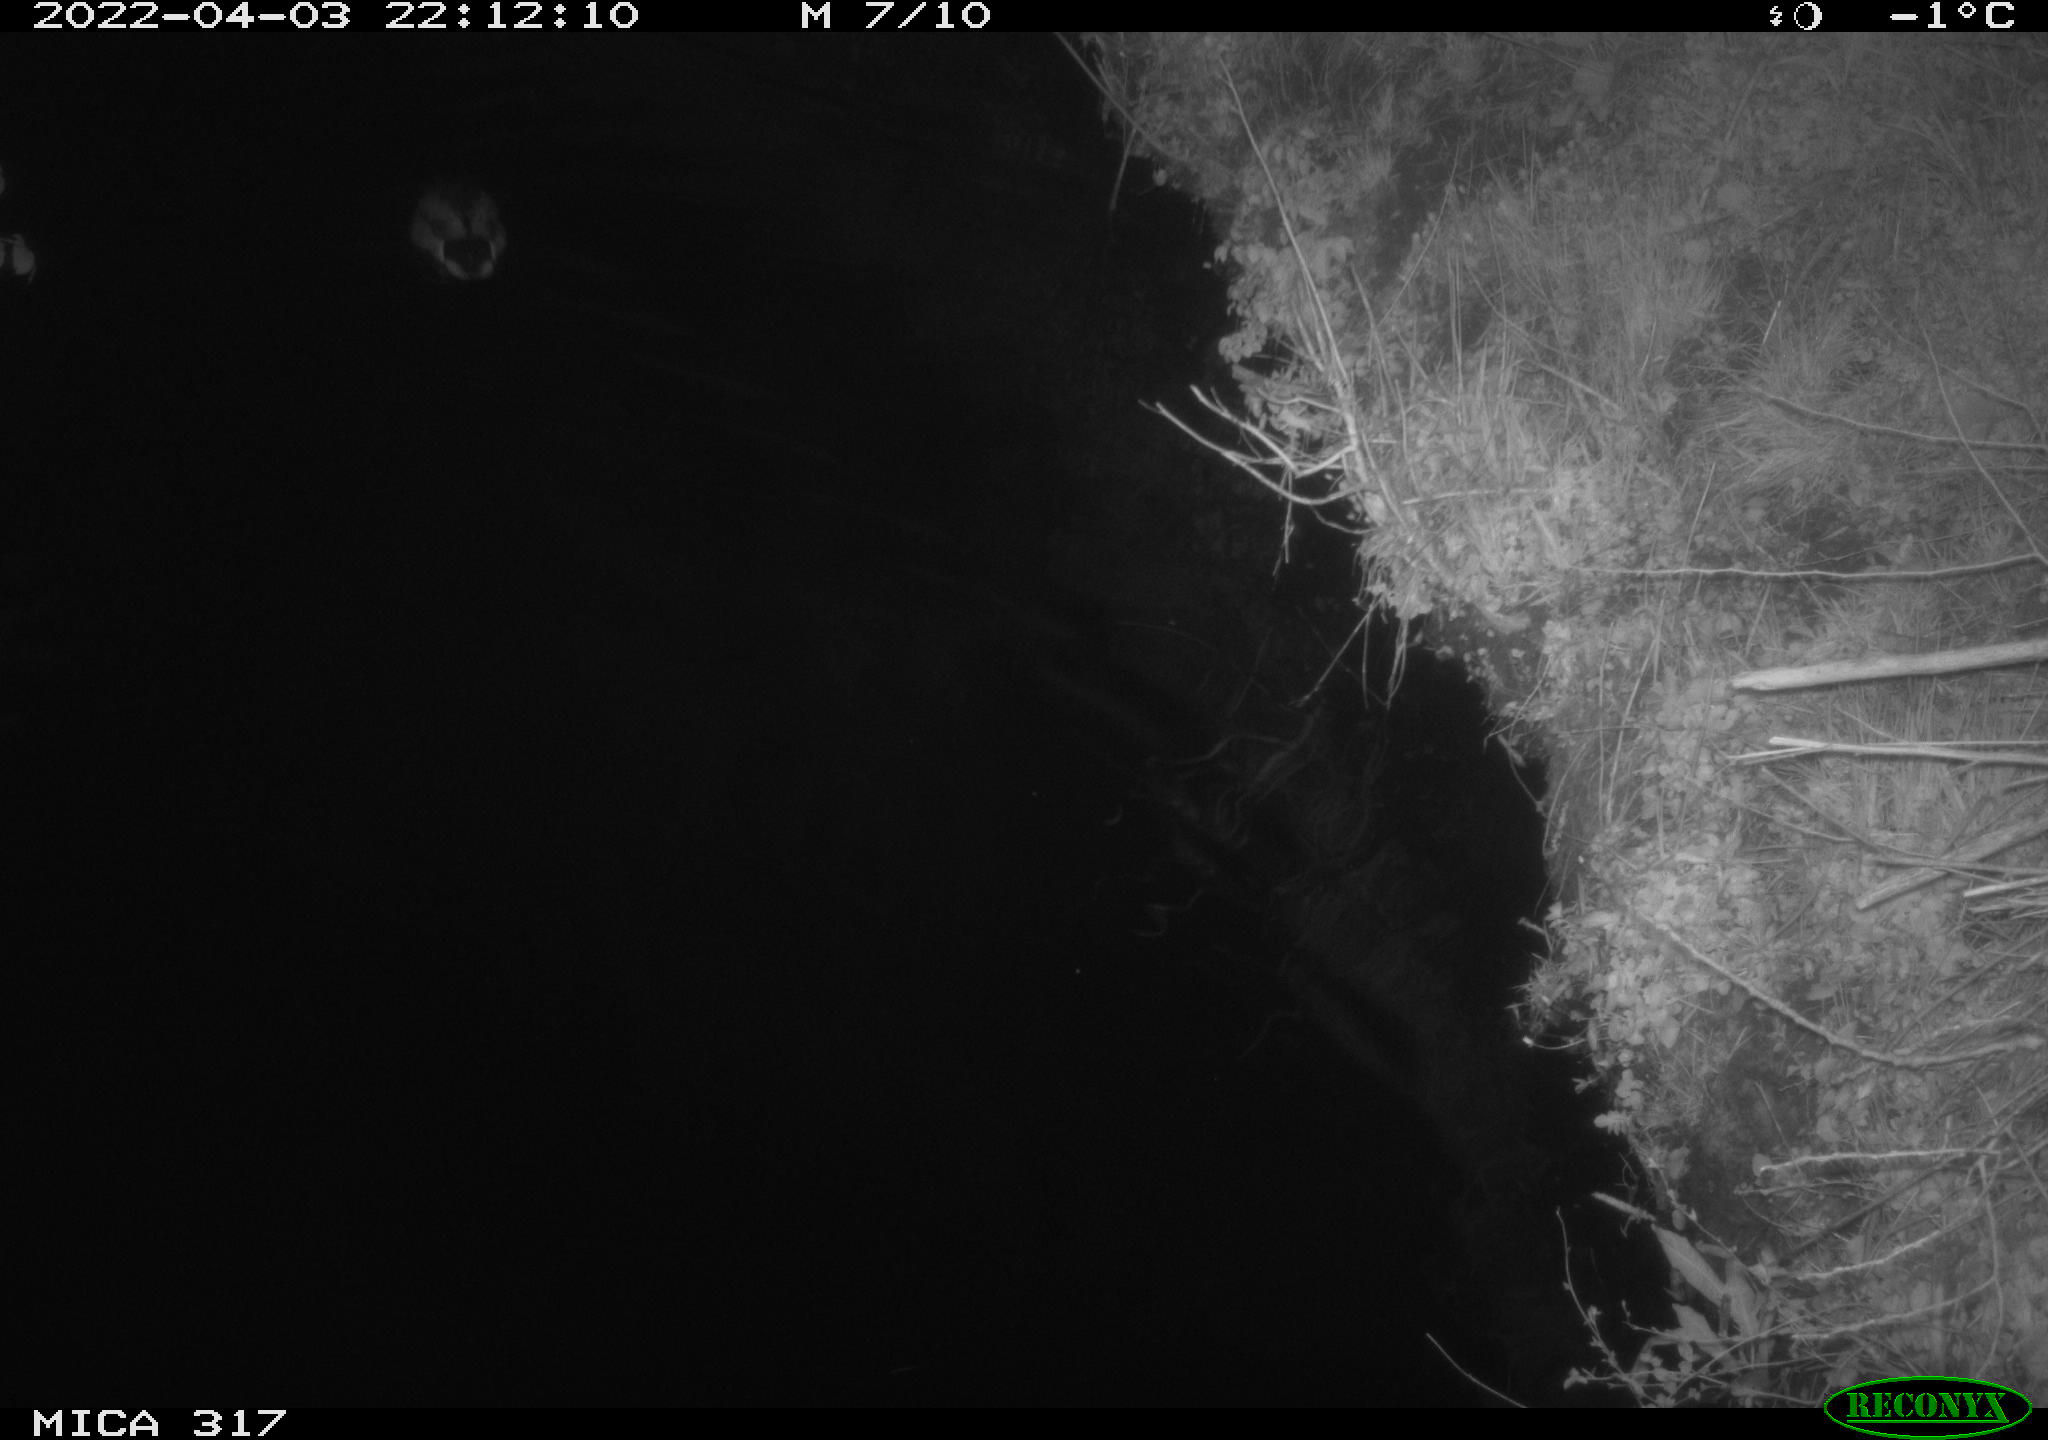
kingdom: Animalia
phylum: Chordata
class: Aves
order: Anseriformes
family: Anatidae
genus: Anas
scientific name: Anas platyrhynchos
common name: Mallard
